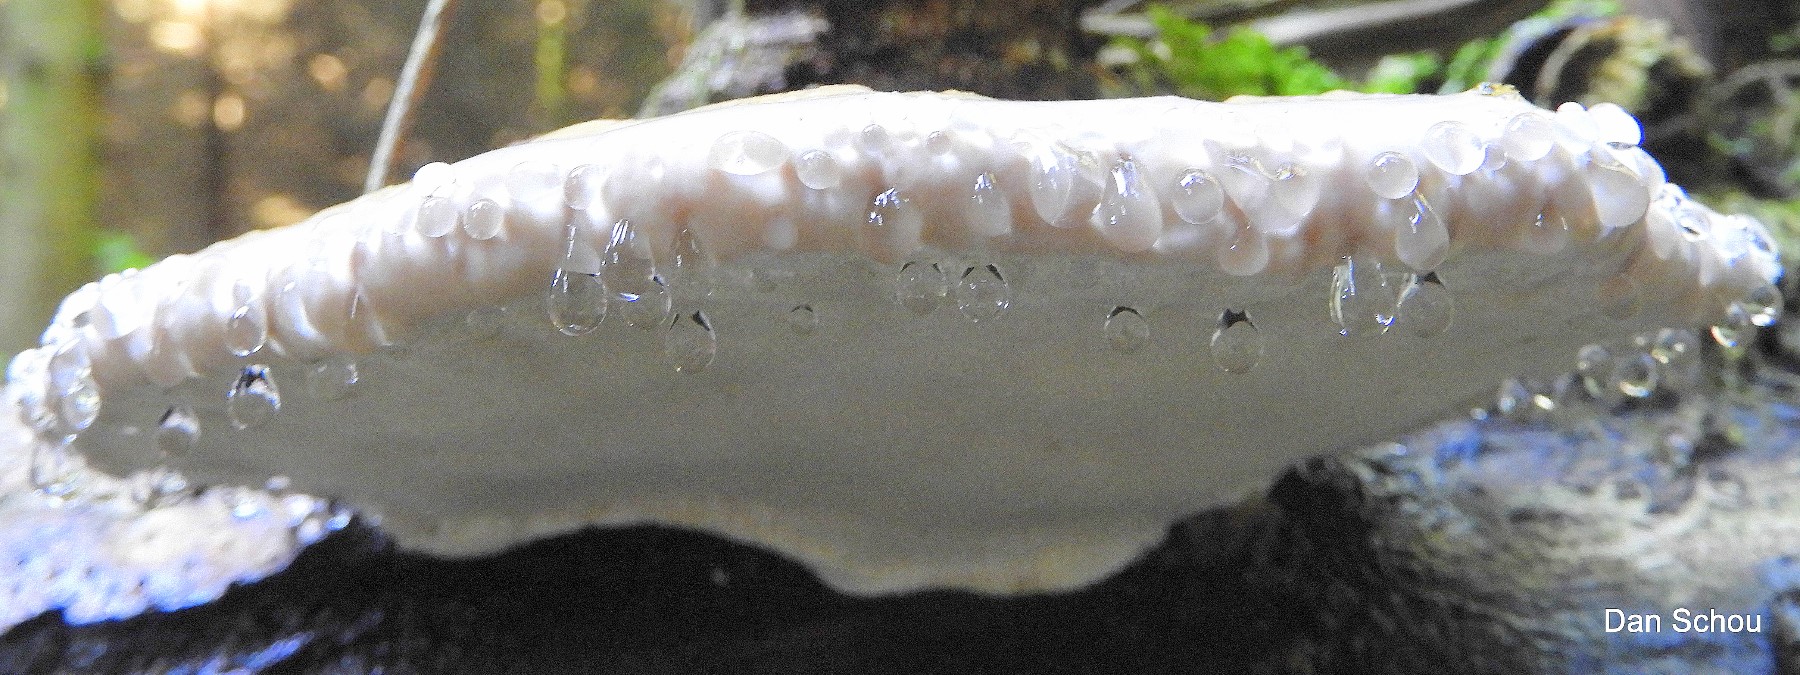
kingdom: Fungi
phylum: Basidiomycota
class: Agaricomycetes
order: Polyporales
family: Fomitopsidaceae
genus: Fomitopsis
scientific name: Fomitopsis pinicola
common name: randbæltet hovporesvamp
